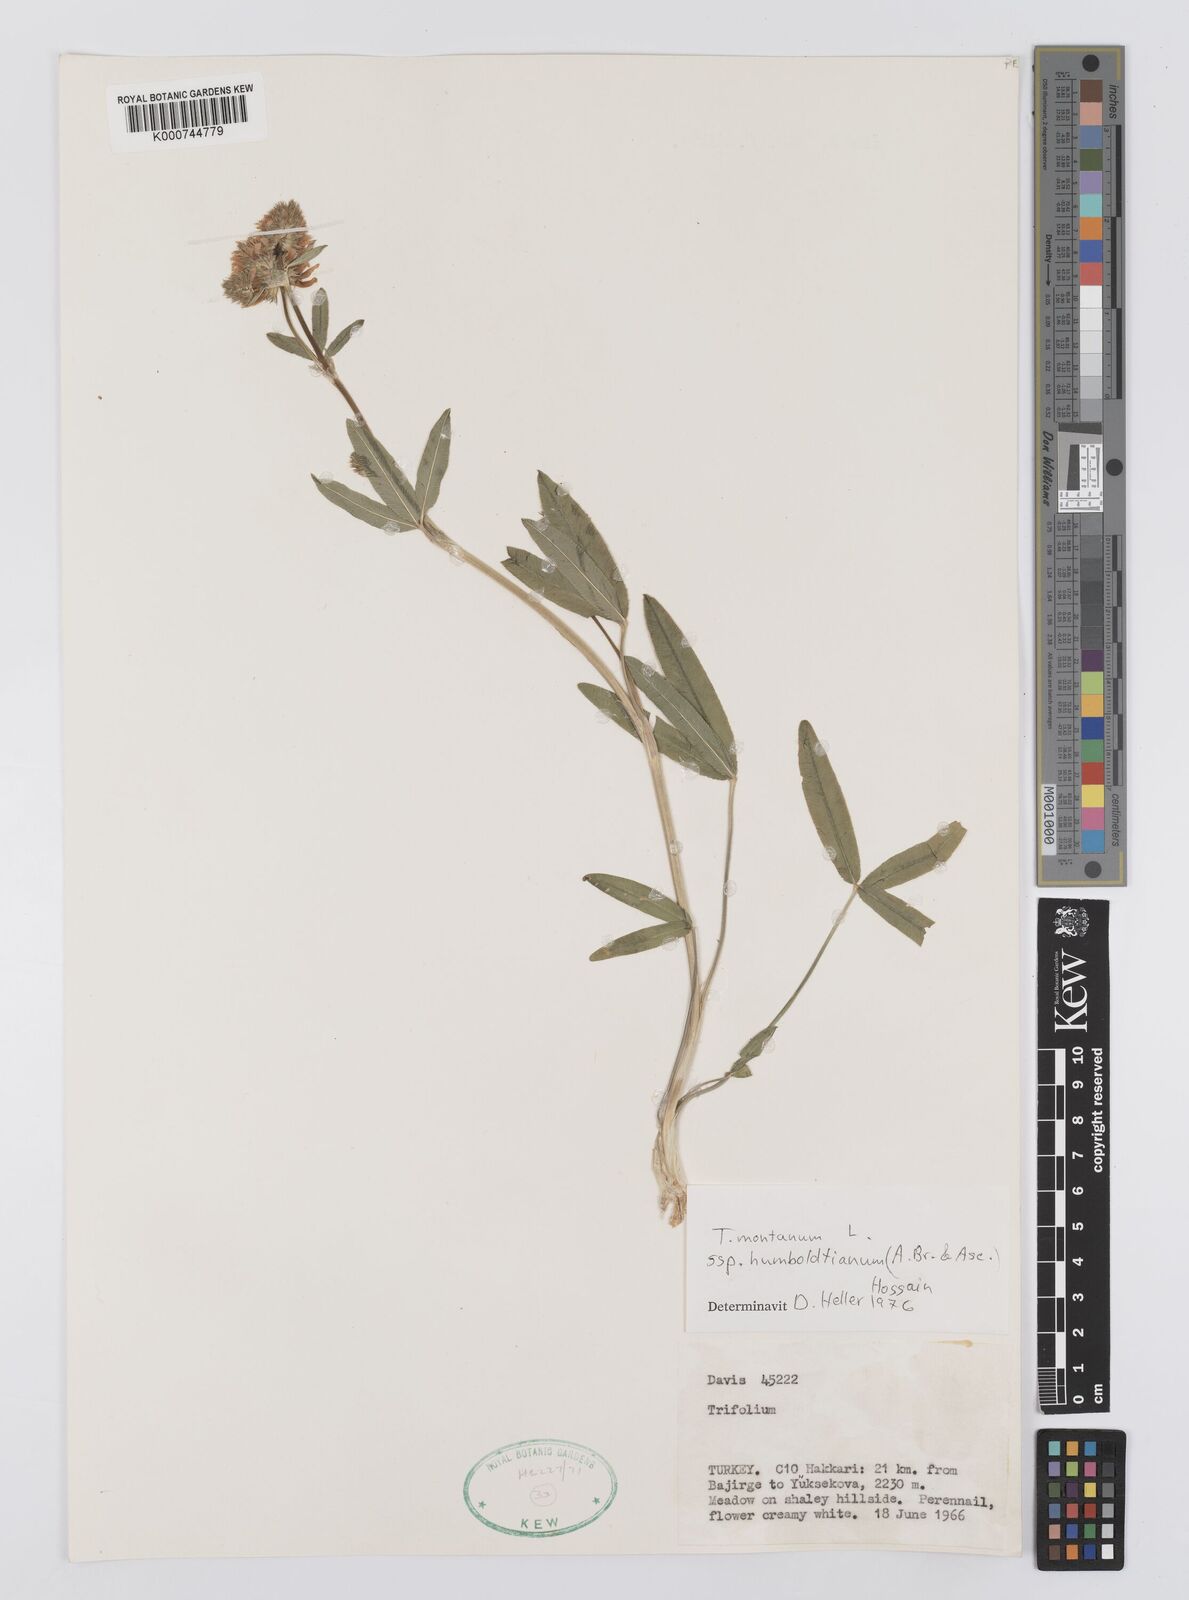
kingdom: Plantae
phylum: Tracheophyta
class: Magnoliopsida
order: Fabales
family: Fabaceae
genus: Trifolium
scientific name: Trifolium
